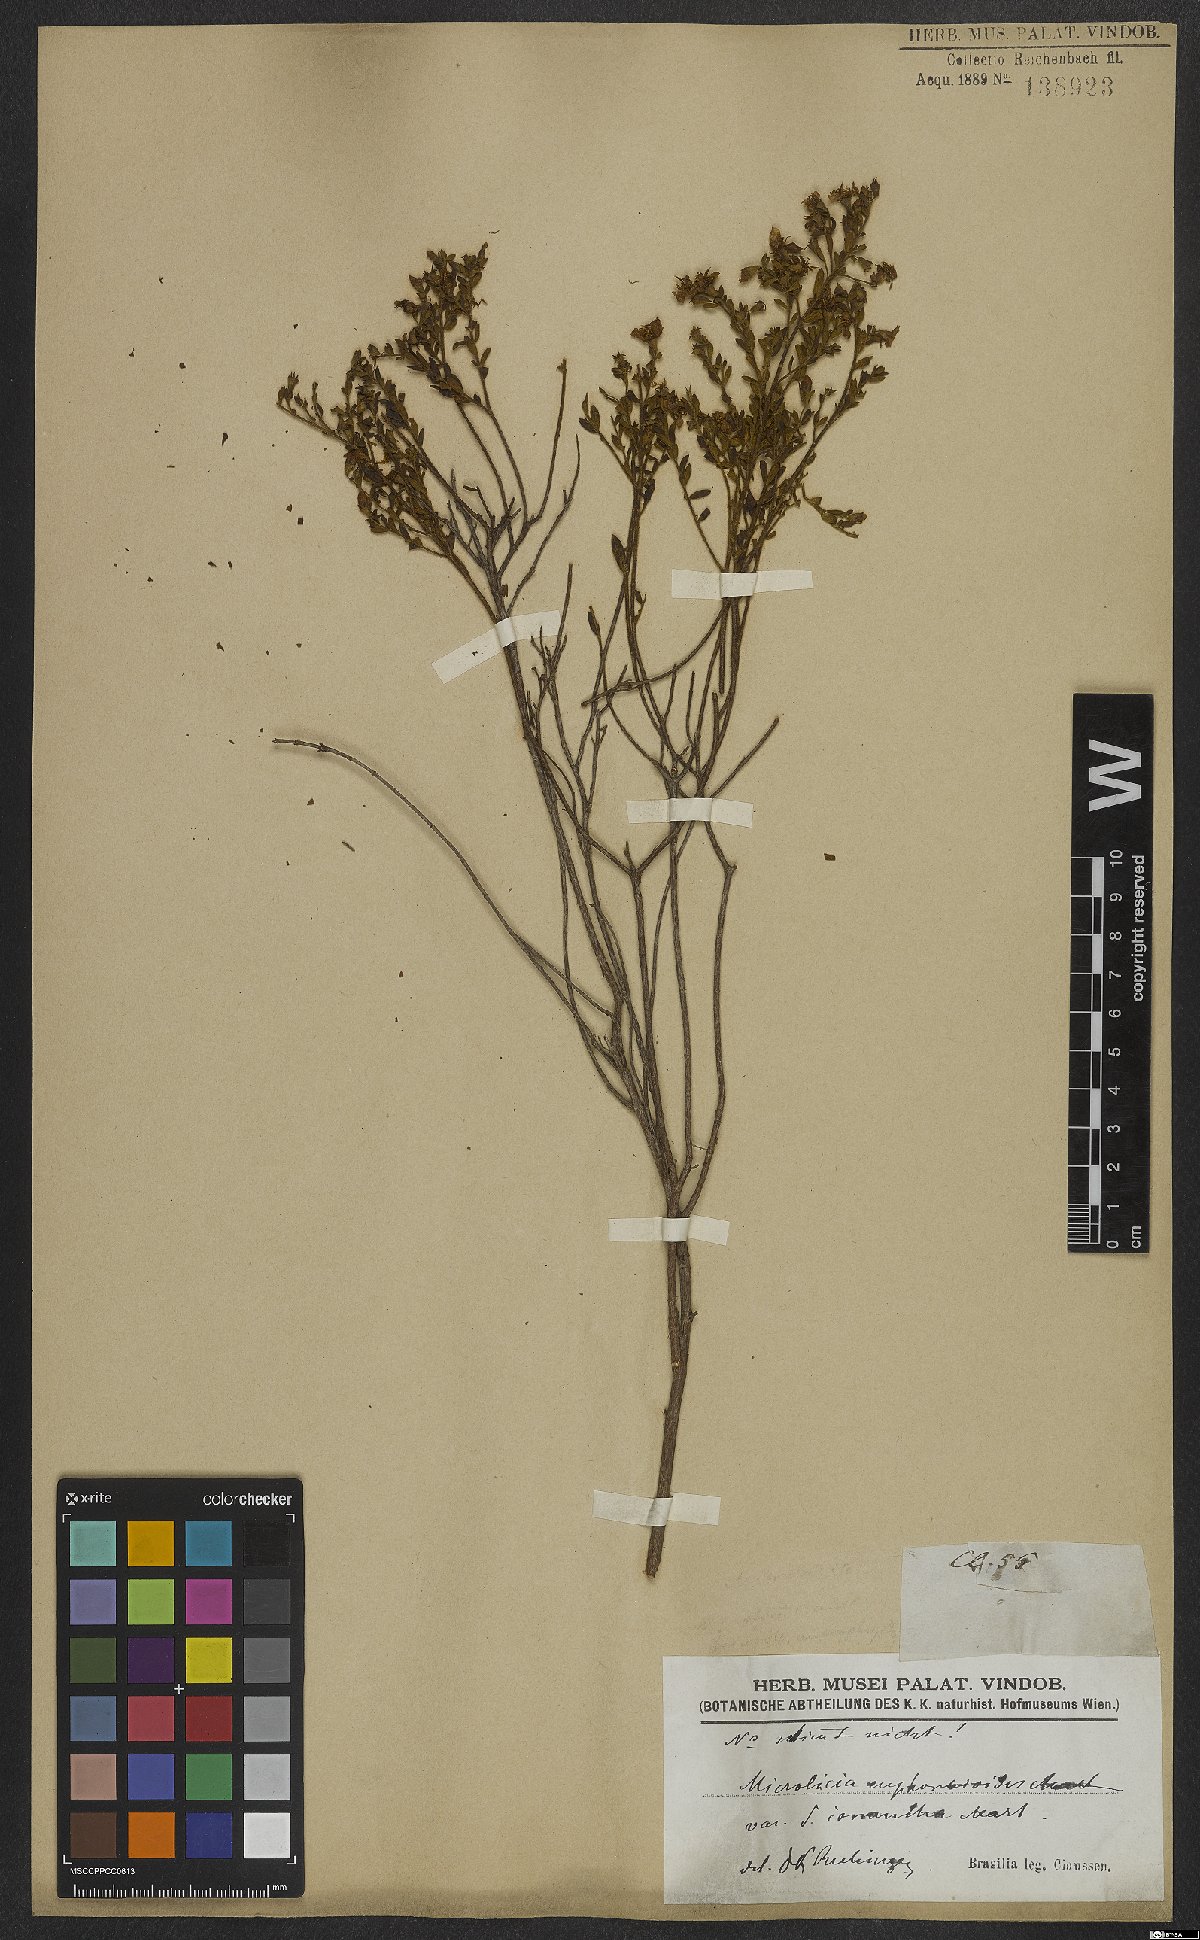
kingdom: Plantae
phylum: Tracheophyta
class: Magnoliopsida
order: Myrtales
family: Melastomataceae
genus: Microlicia
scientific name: Microlicia euphorbioides
